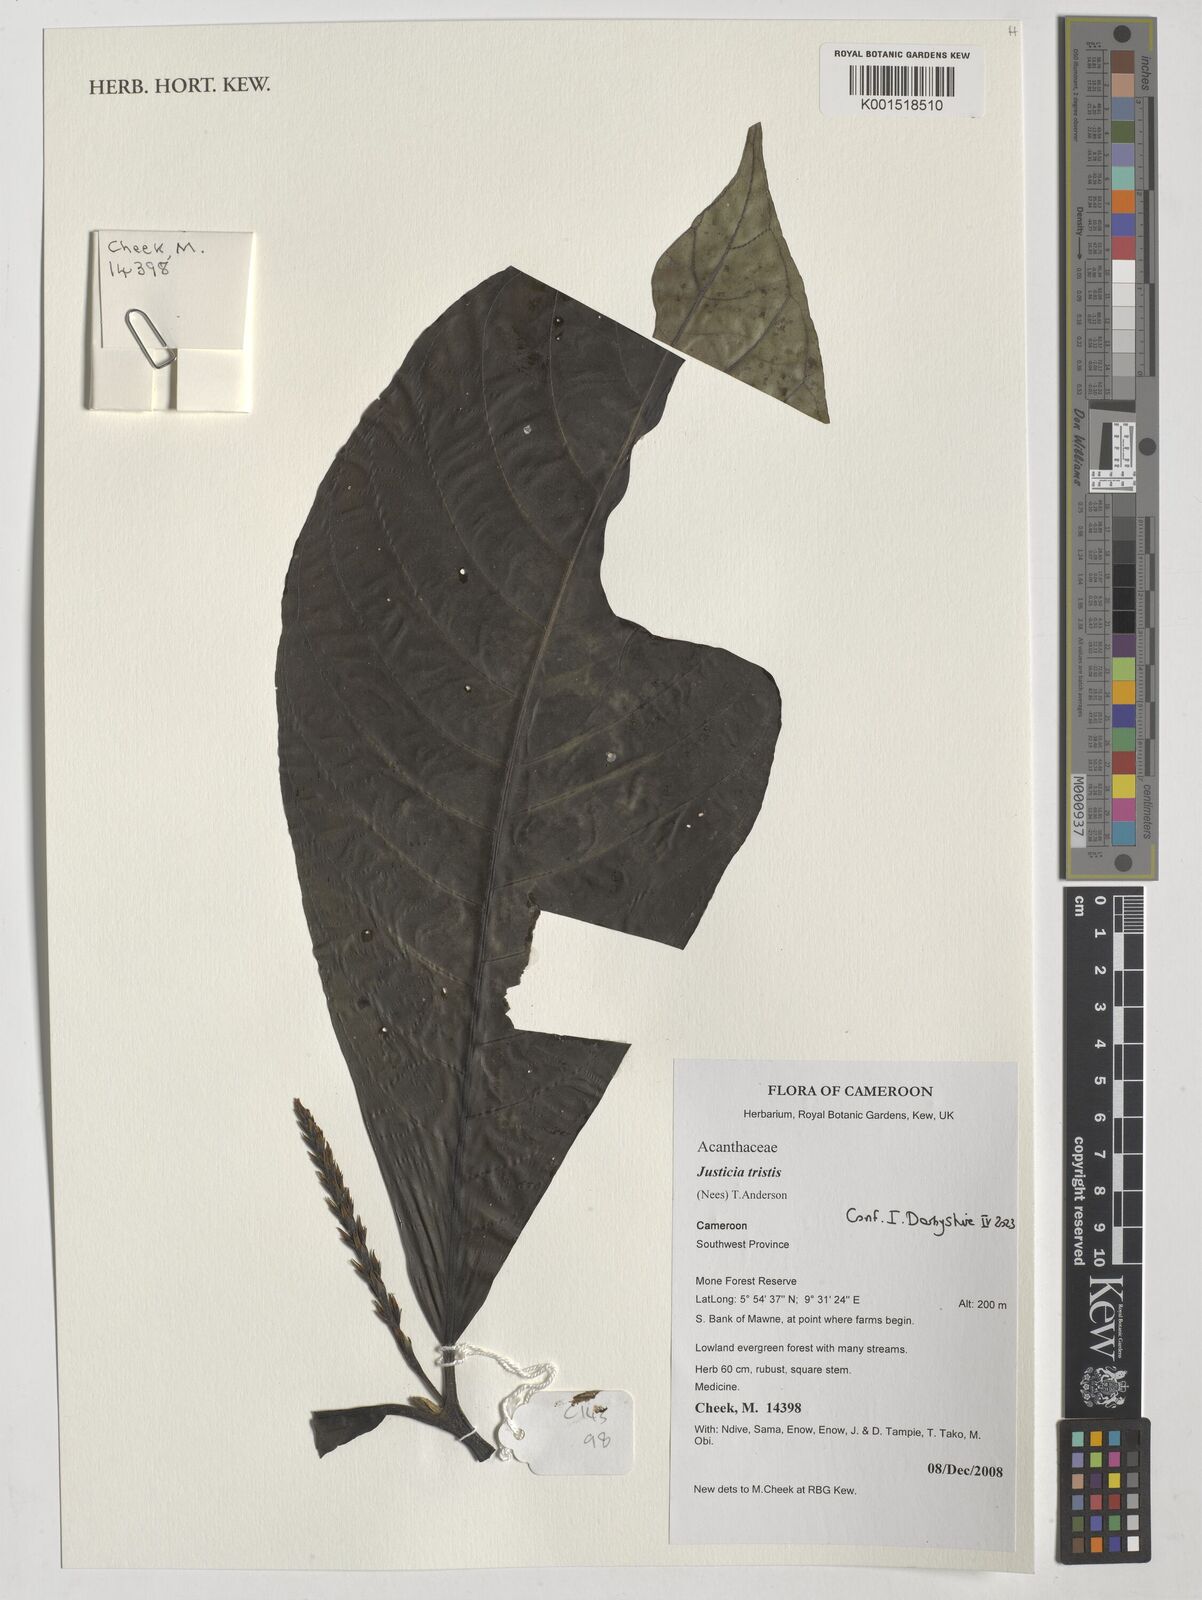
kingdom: Plantae
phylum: Tracheophyta
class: Magnoliopsida
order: Lamiales
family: Acanthaceae
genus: Justicia
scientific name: Justicia tristis
